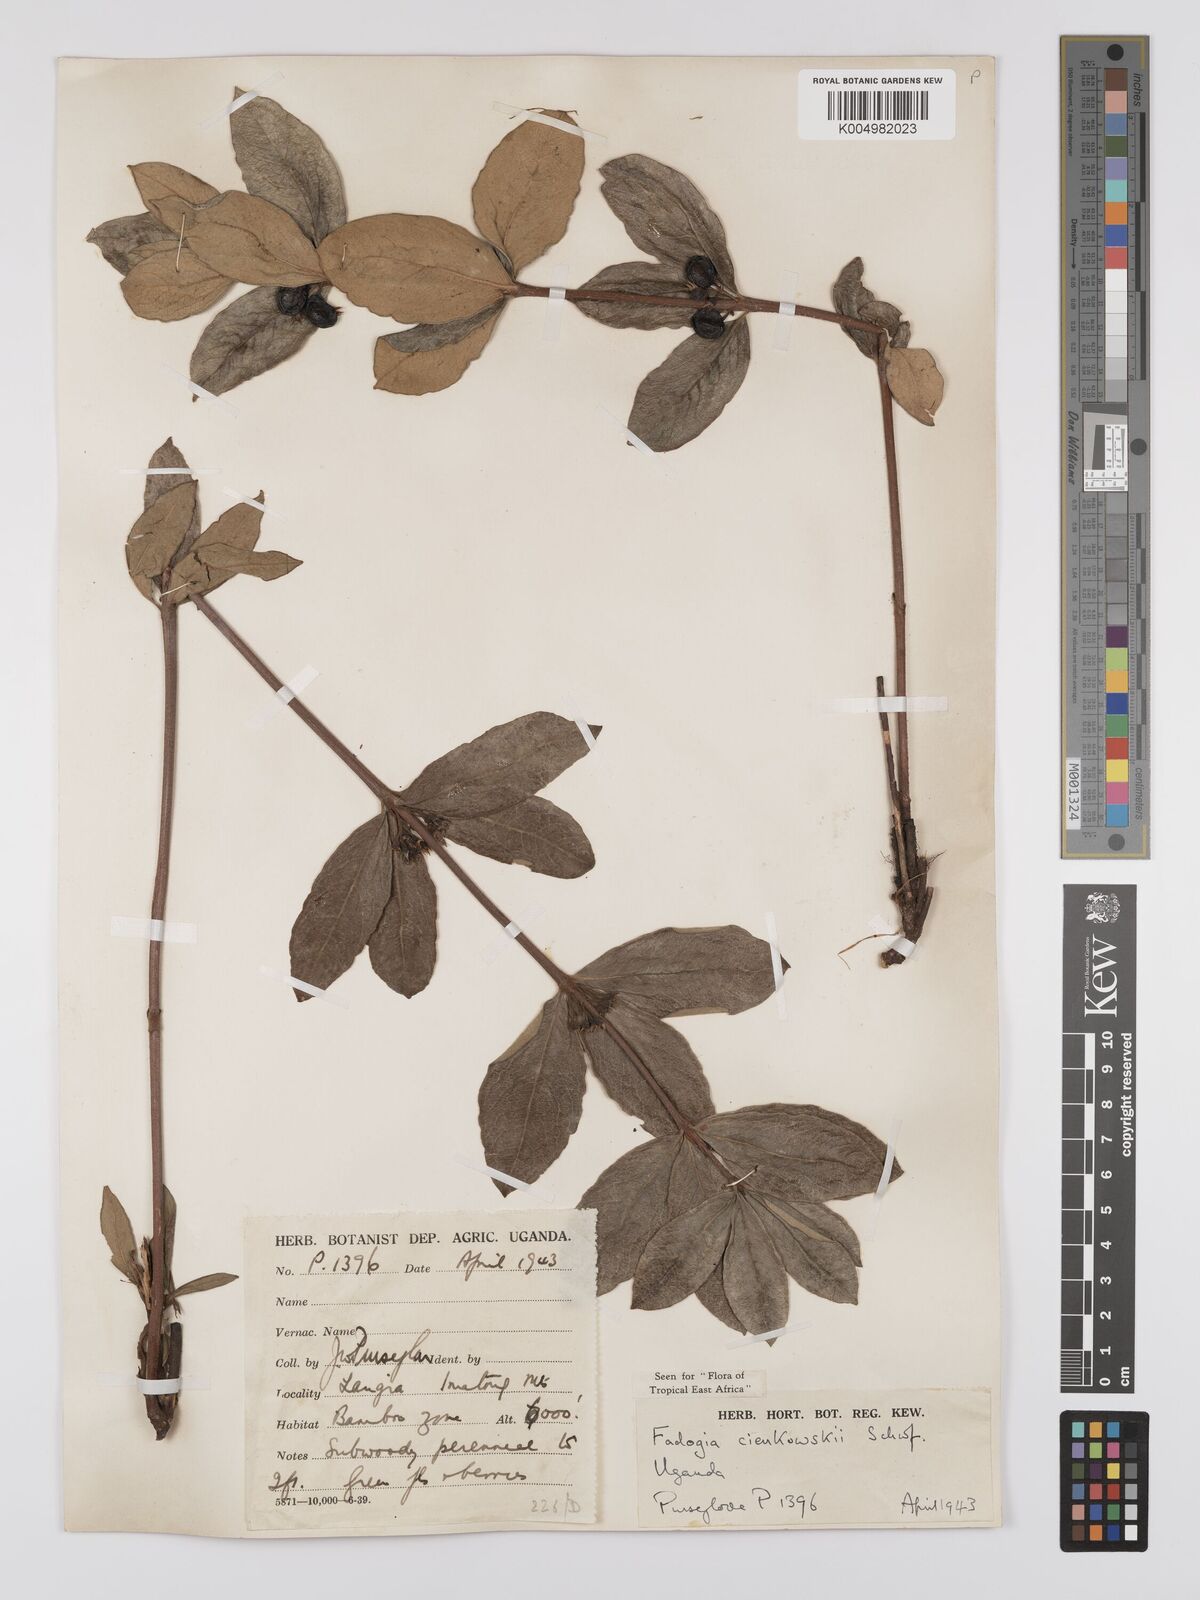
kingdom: Plantae
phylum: Tracheophyta
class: Magnoliopsida
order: Gentianales
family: Rubiaceae
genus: Fadogia
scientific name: Fadogia cienkowskii
